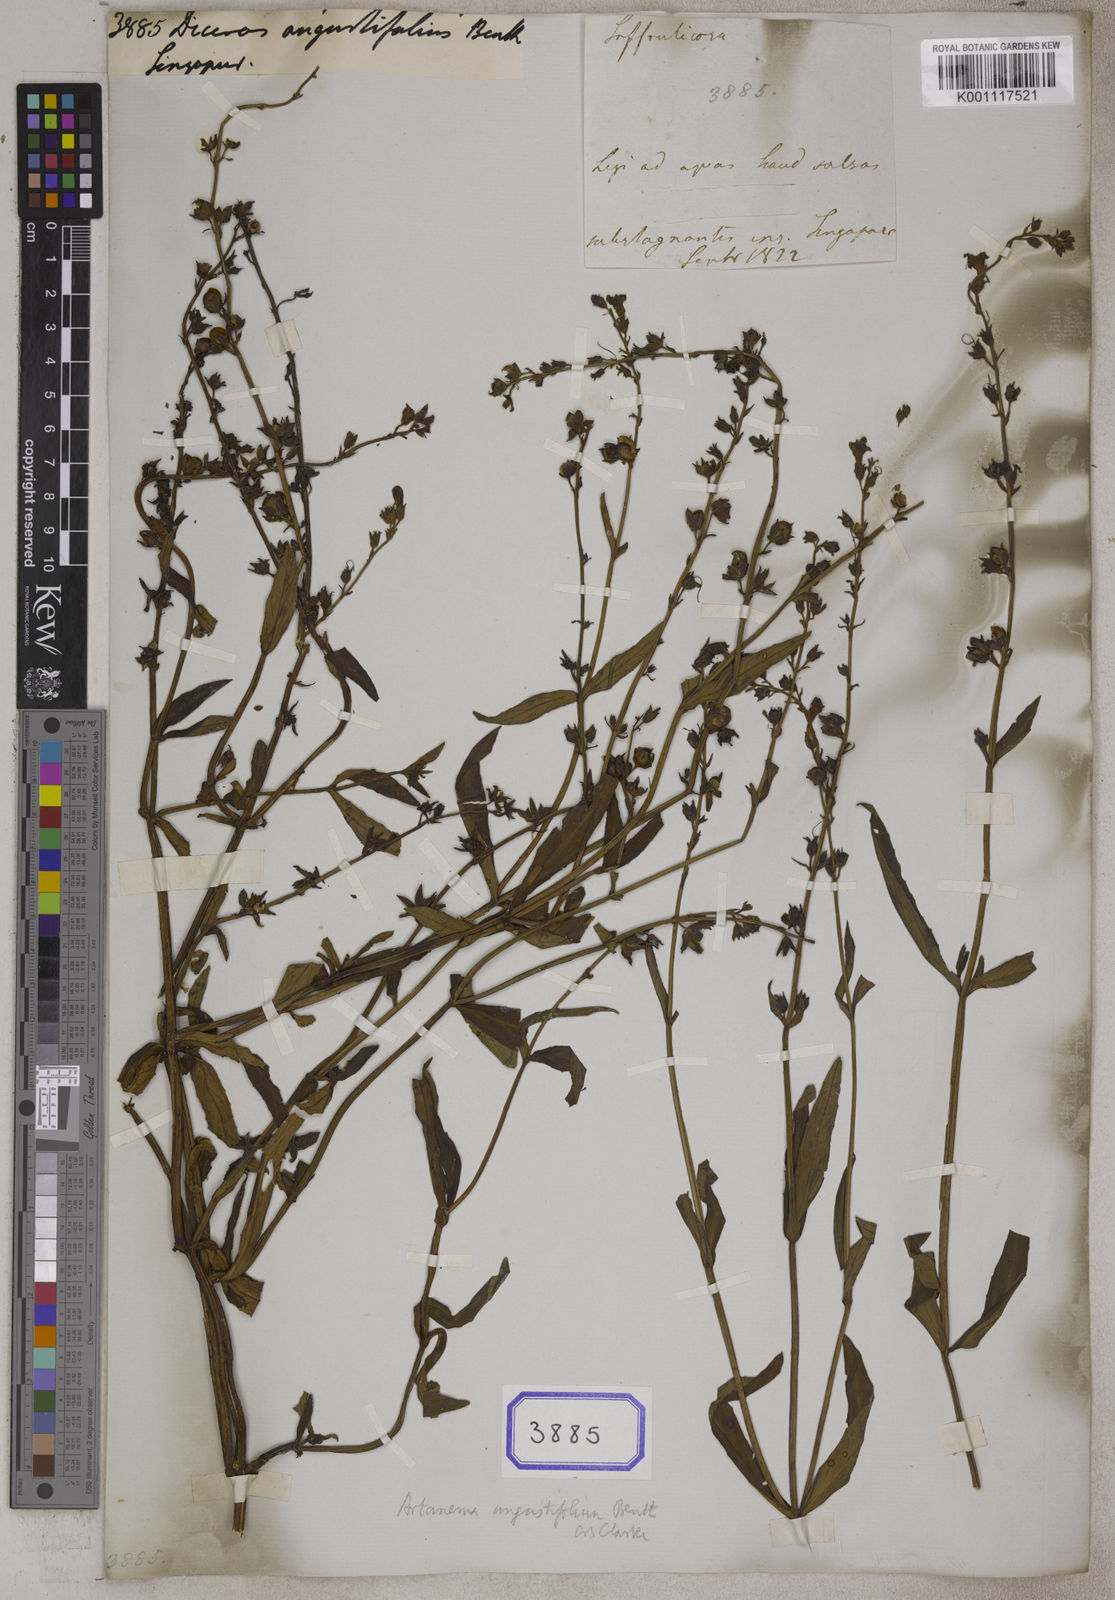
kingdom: Plantae
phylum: Tracheophyta
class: Magnoliopsida
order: Lamiales
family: Linderniaceae
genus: Artanema
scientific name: Artanema
